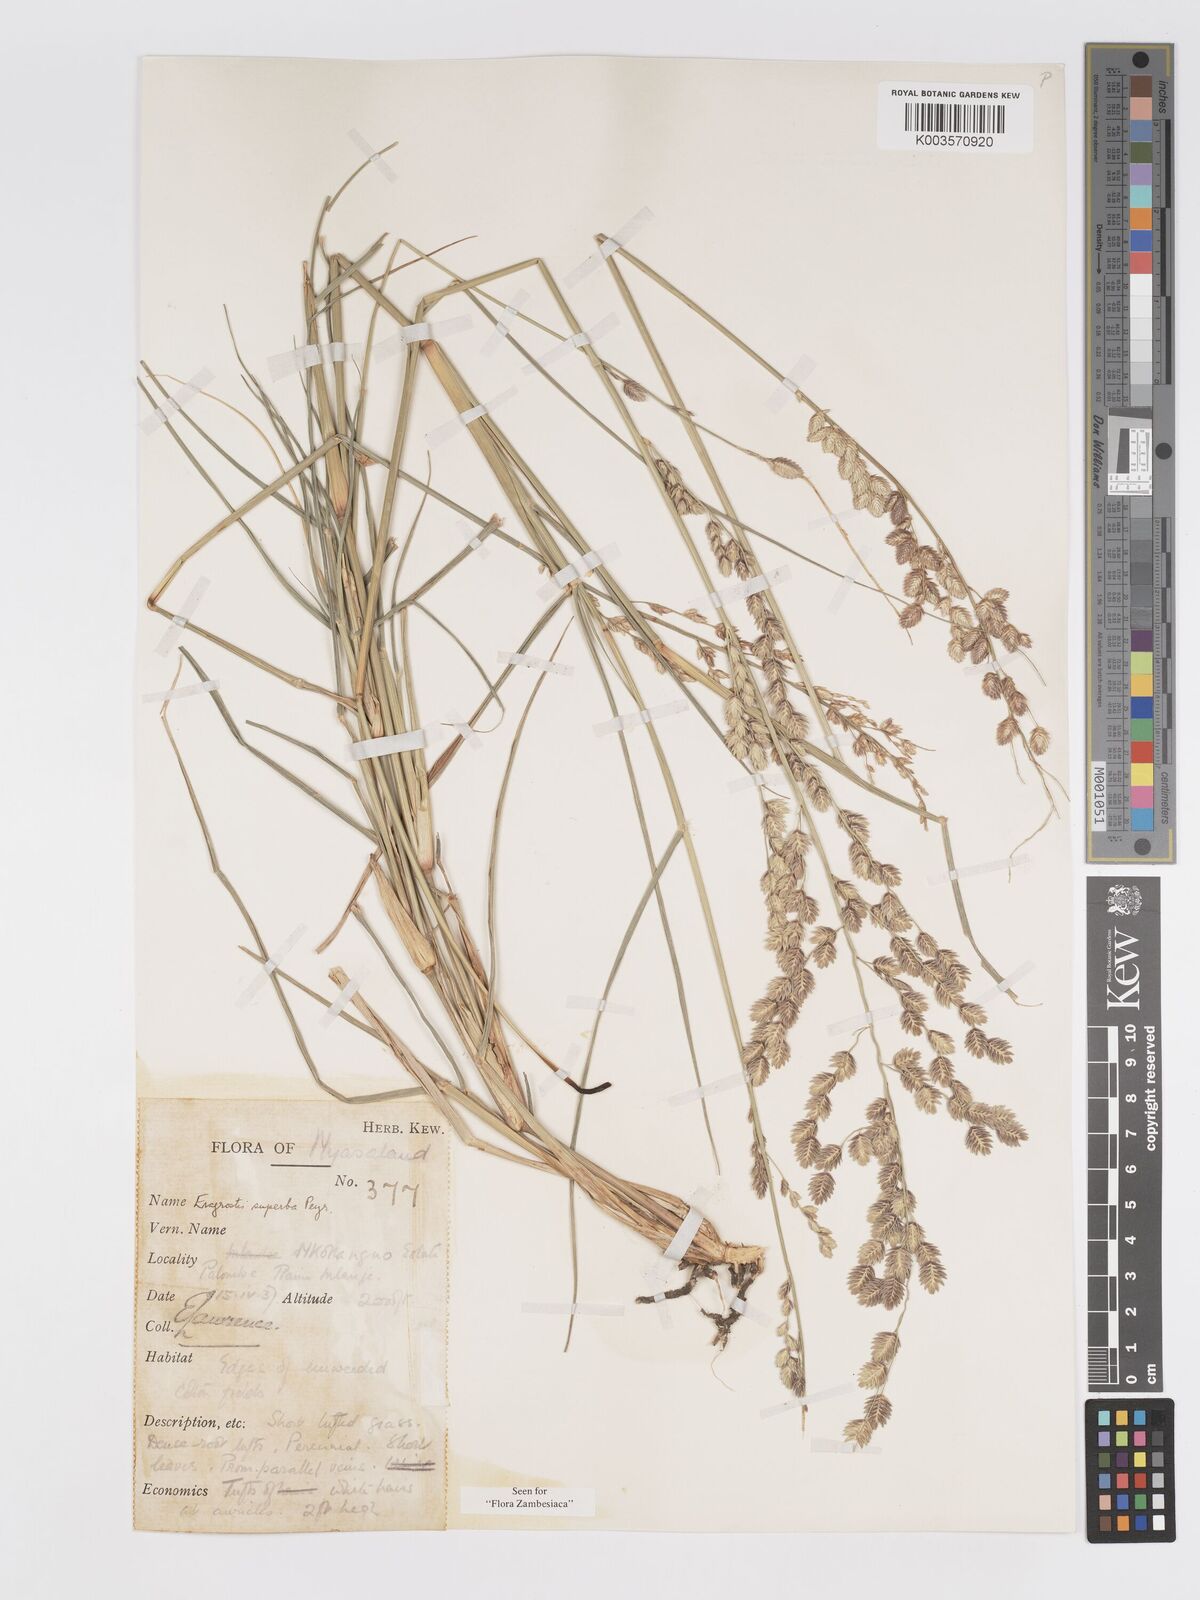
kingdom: Plantae
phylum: Tracheophyta
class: Liliopsida
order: Poales
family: Poaceae
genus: Eragrostis
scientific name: Eragrostis superba
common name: Wilman lovegrass
